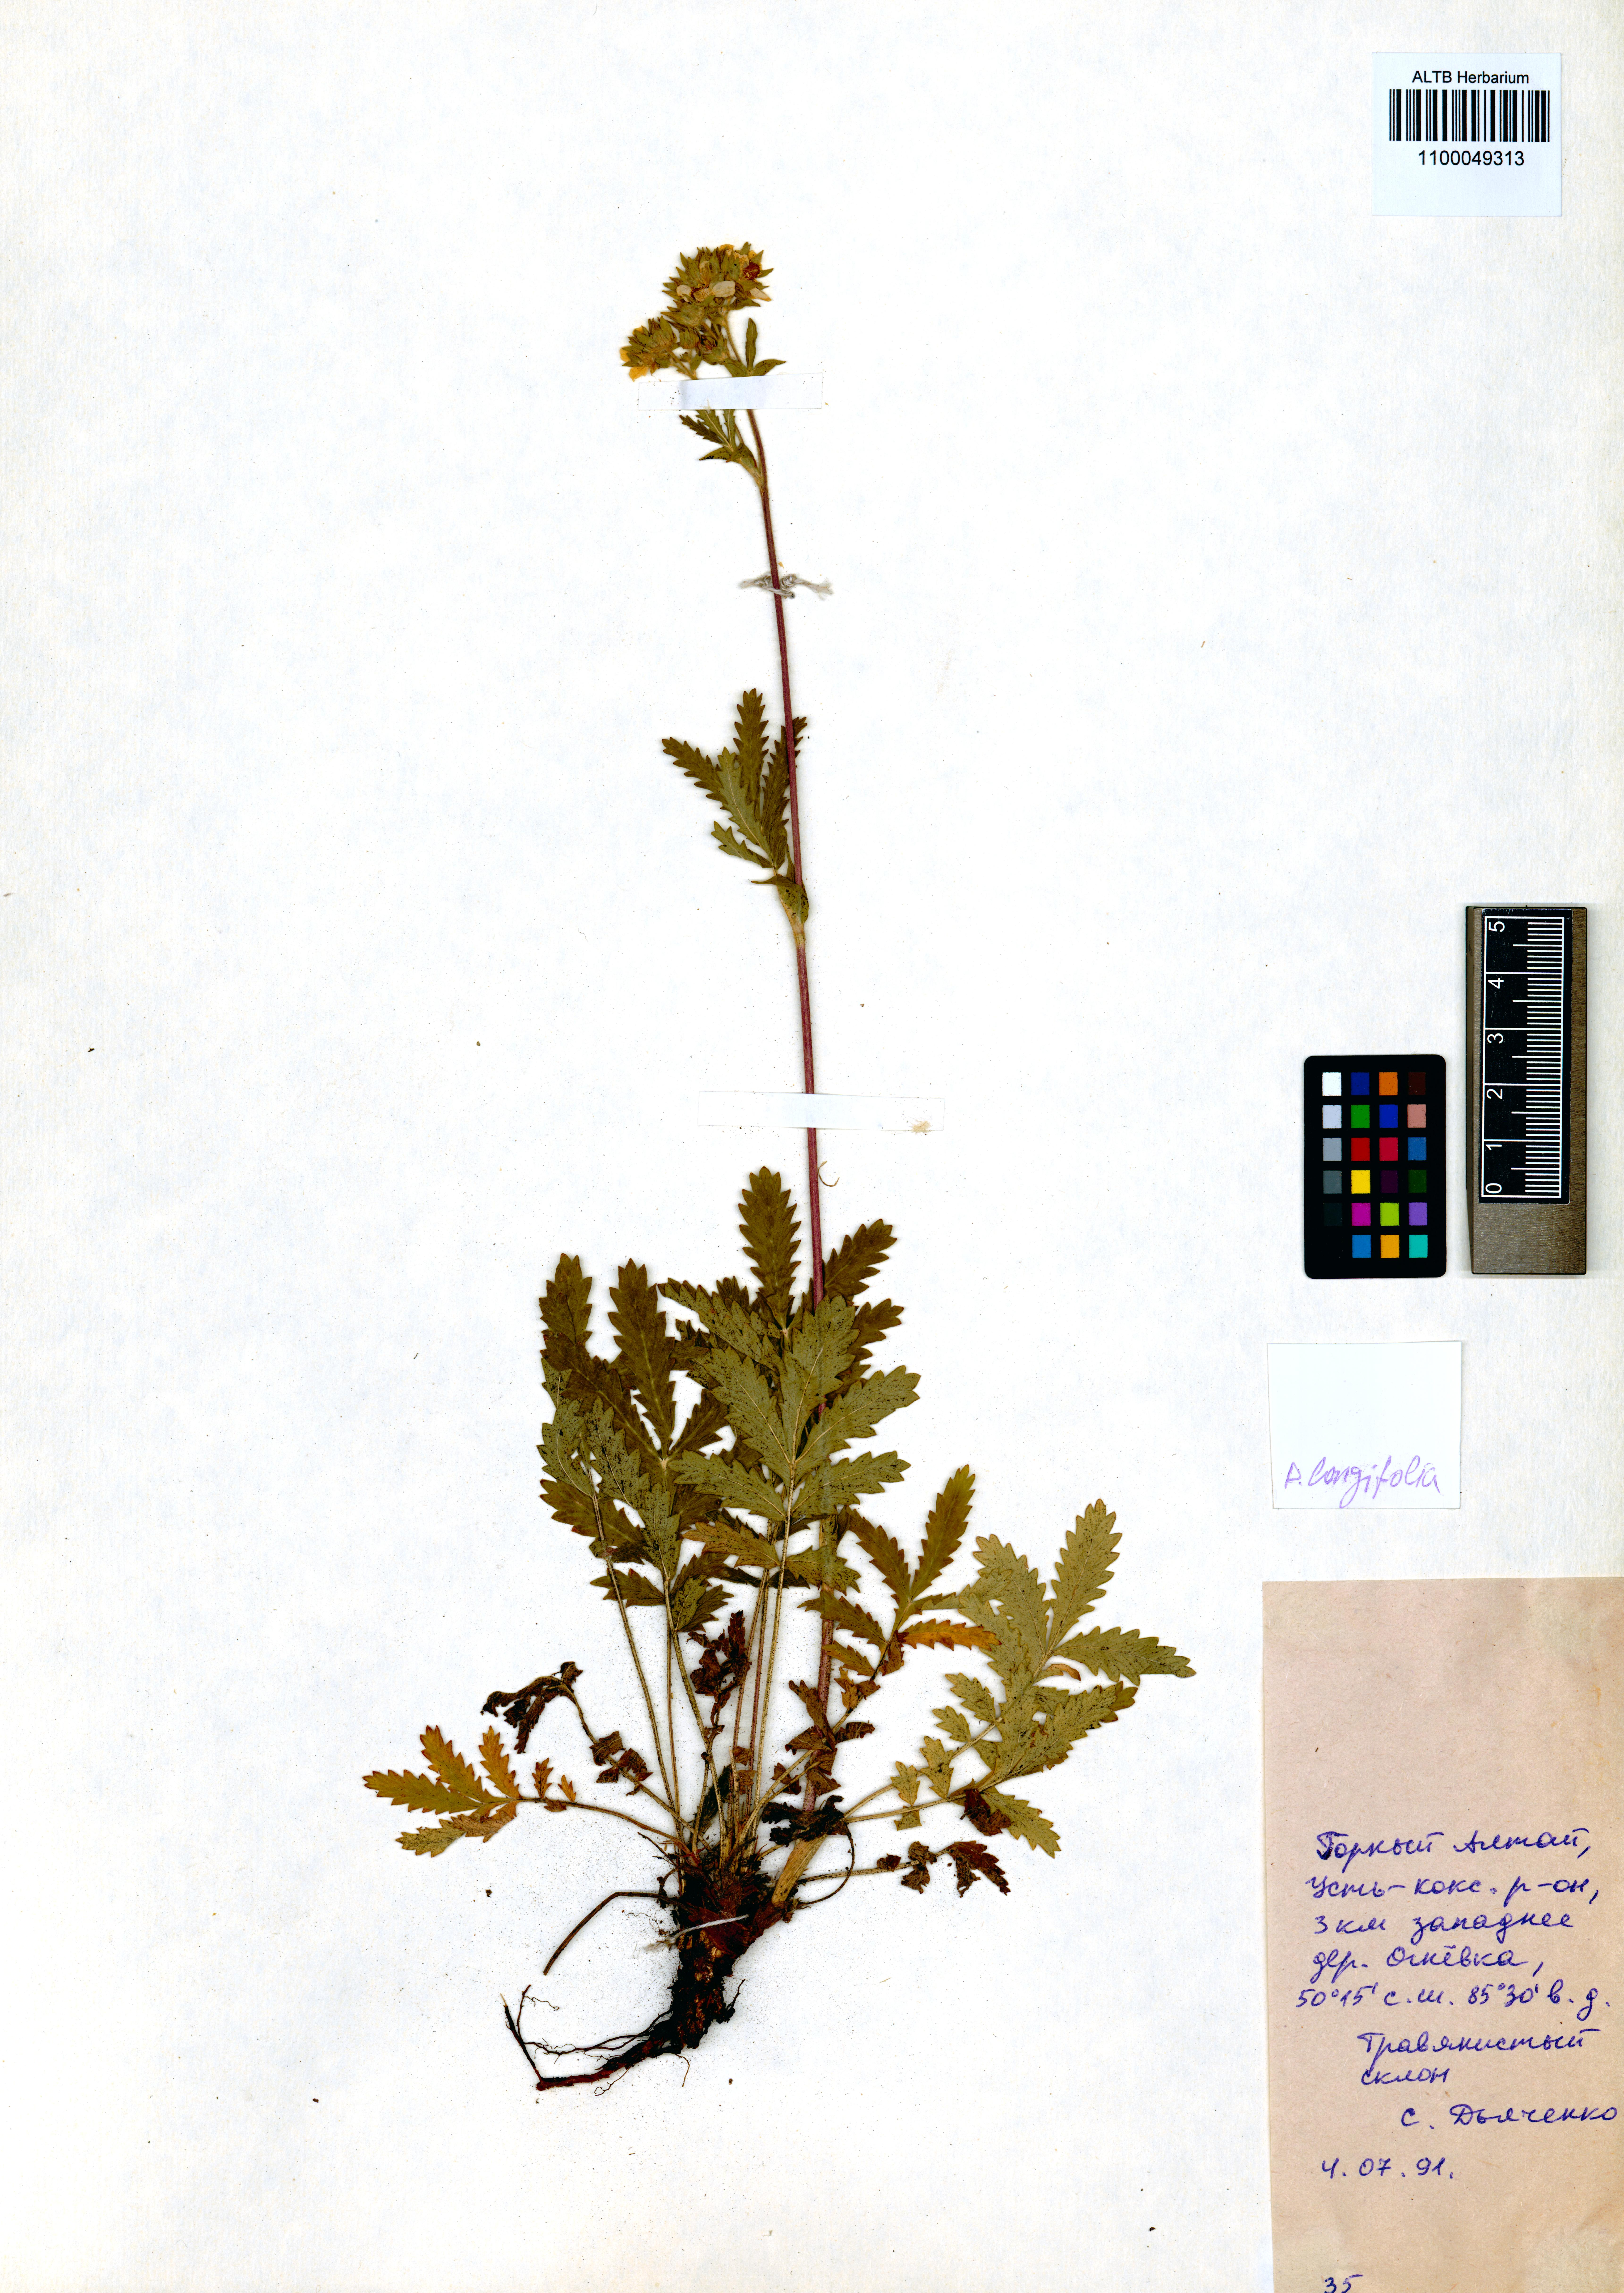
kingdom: Plantae
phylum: Tracheophyta
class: Magnoliopsida
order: Rosales
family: Rosaceae
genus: Potentilla
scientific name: Potentilla longifolia
